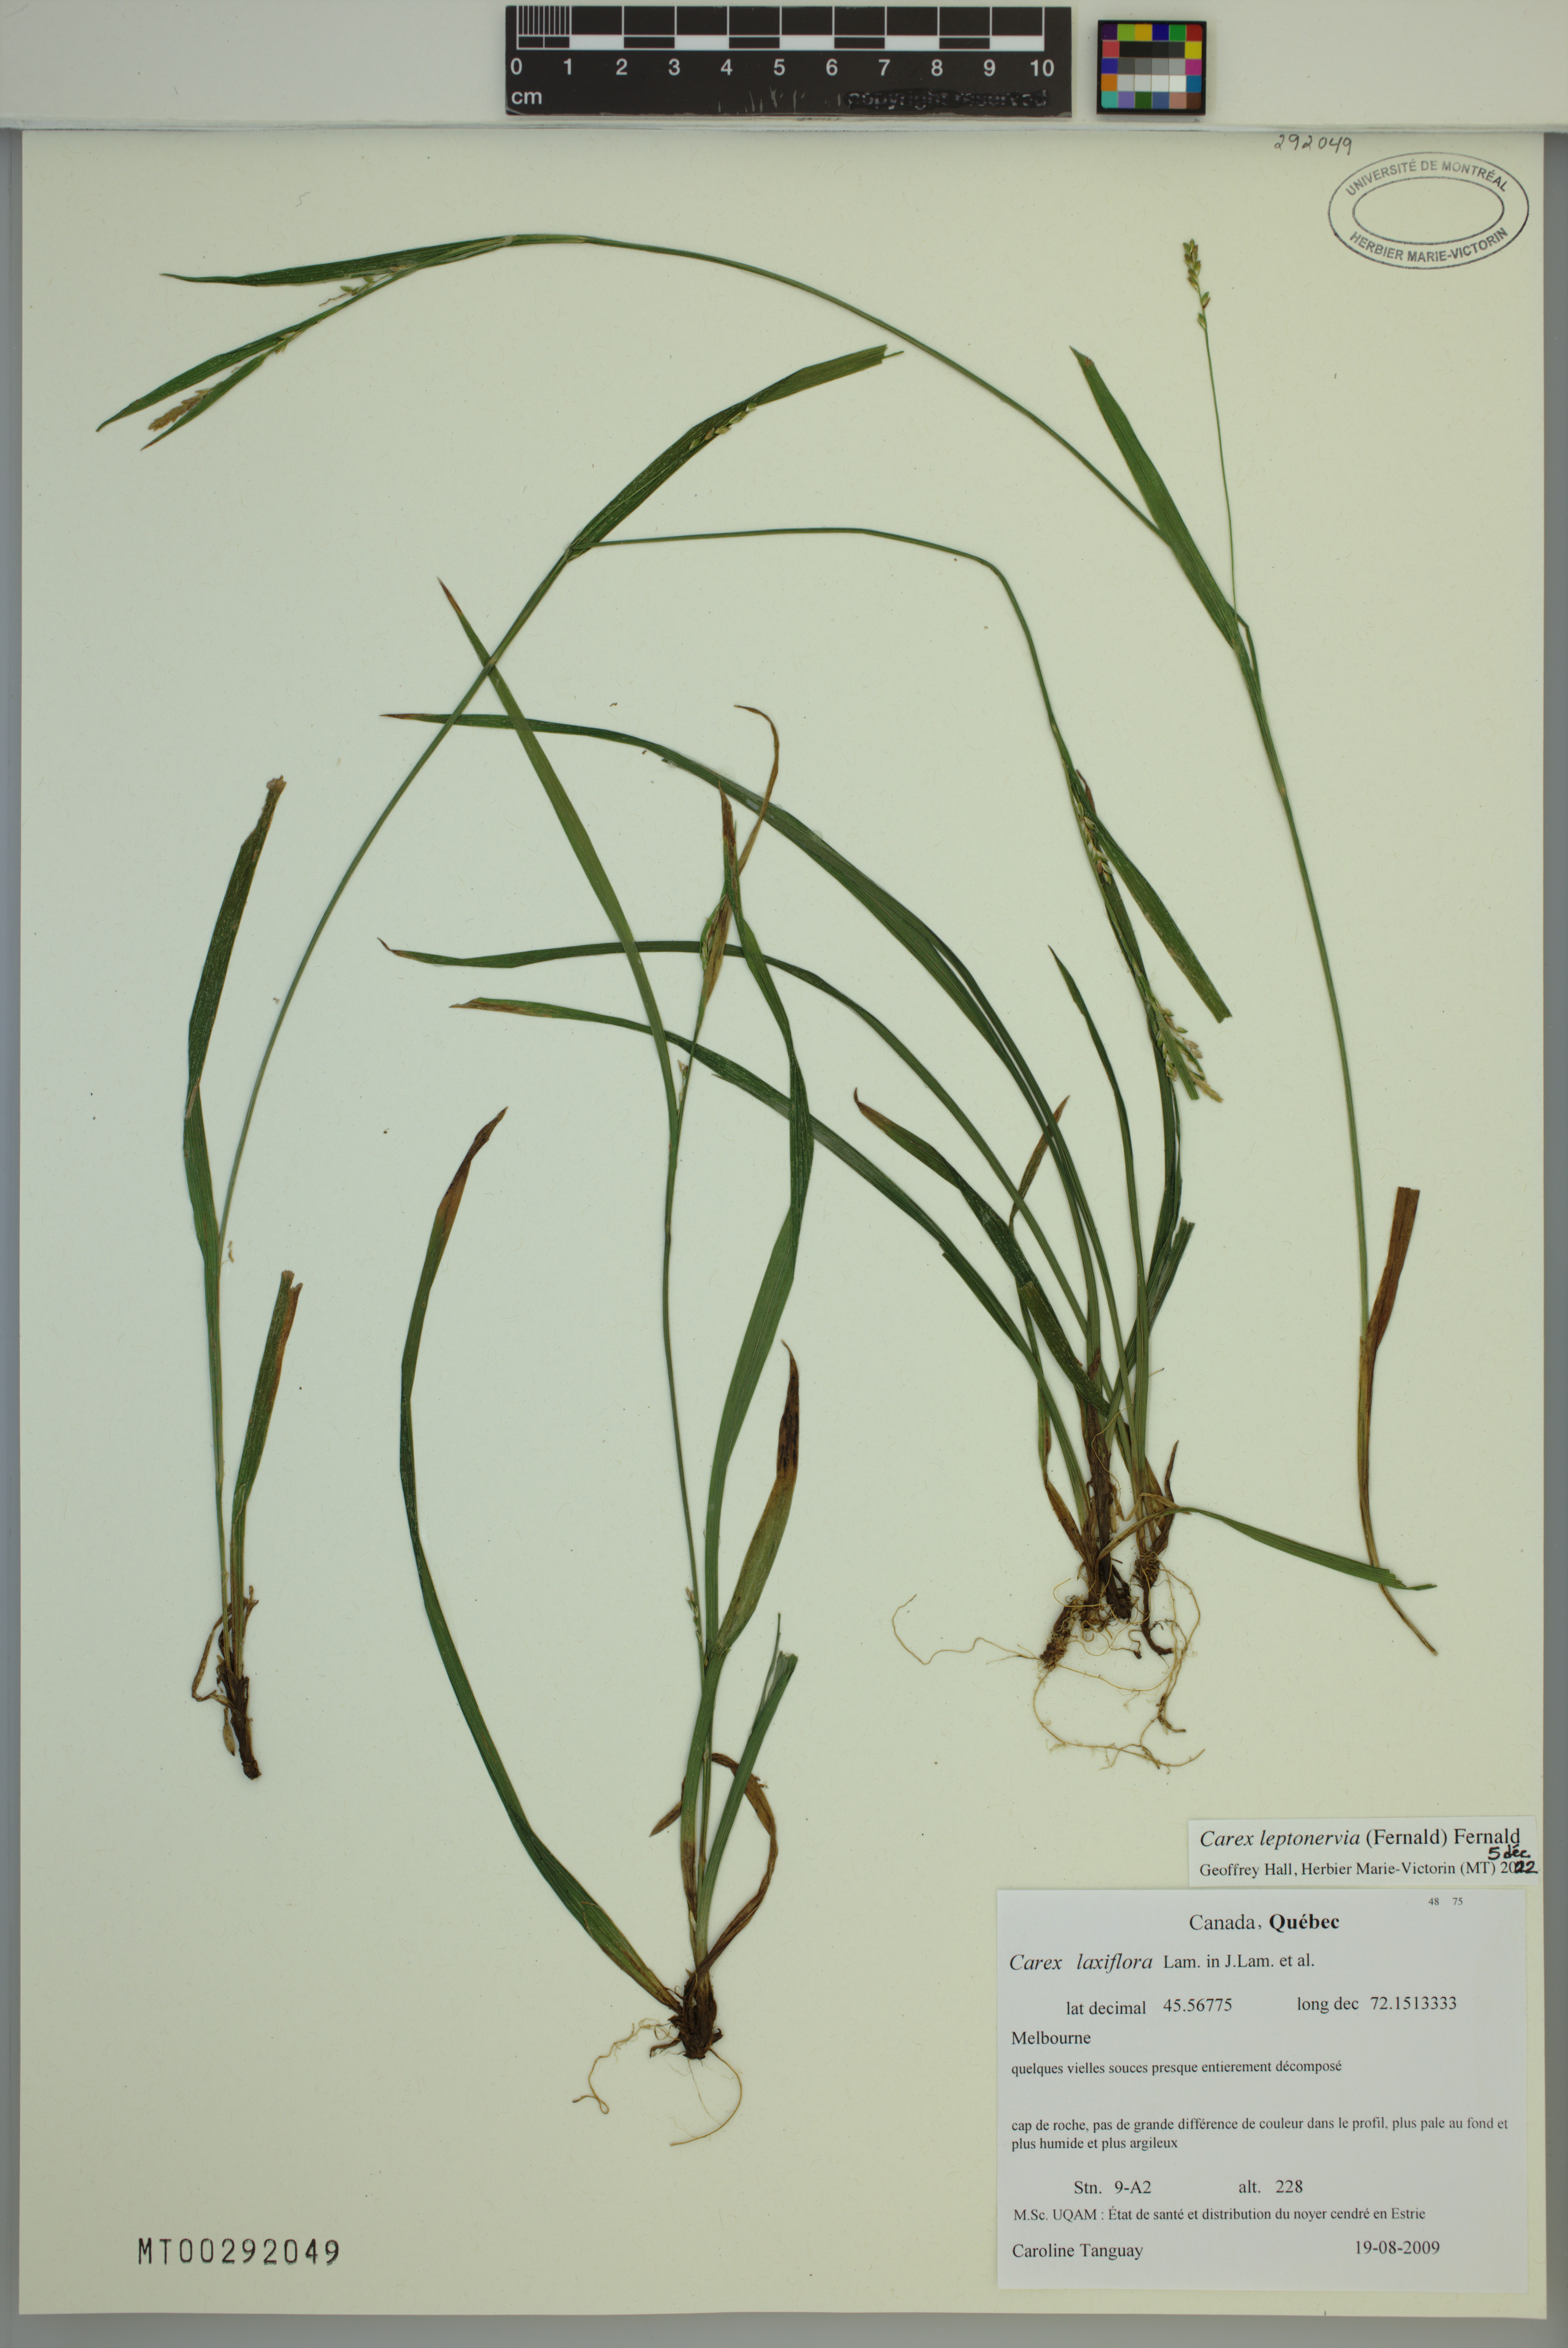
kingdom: Plantae
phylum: Tracheophyta
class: Liliopsida
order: Poales
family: Cyperaceae
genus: Carex
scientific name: Carex leptonervia
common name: Few-nerved wood sedge
